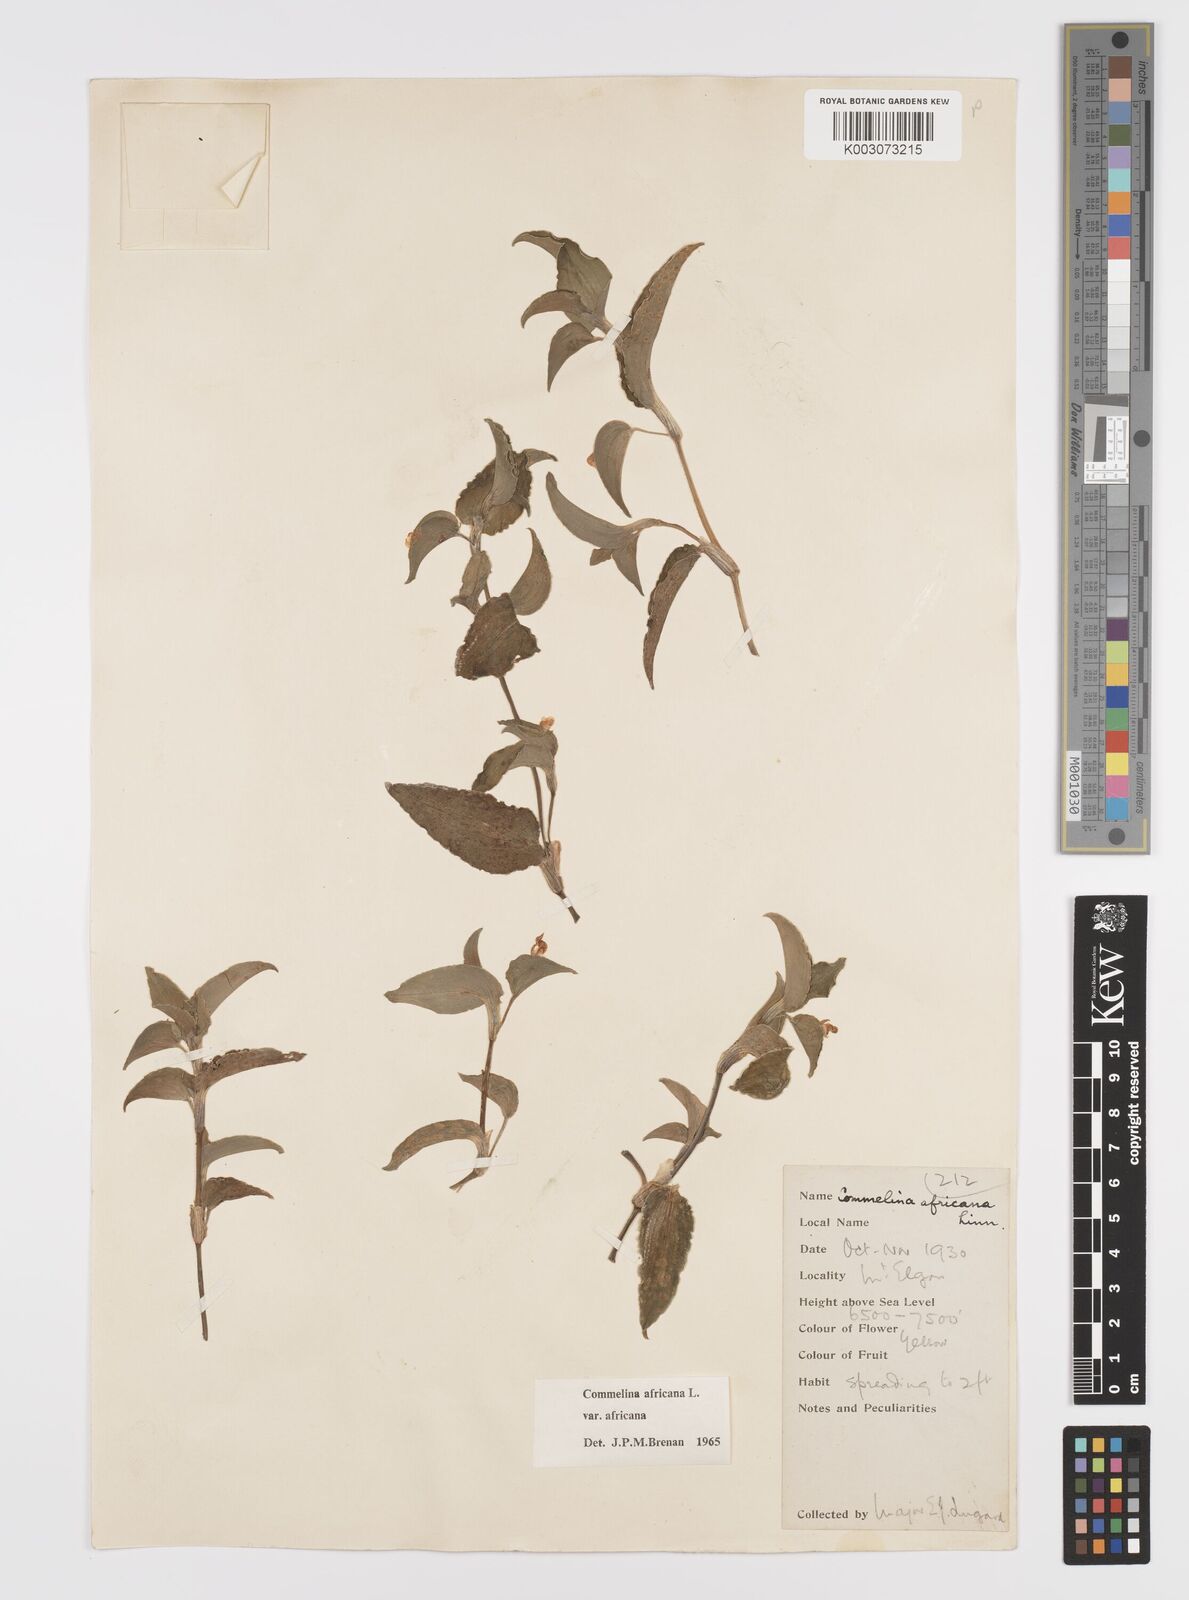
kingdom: Plantae
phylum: Tracheophyta
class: Liliopsida
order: Commelinales
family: Commelinaceae
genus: Commelina
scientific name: Commelina africana
